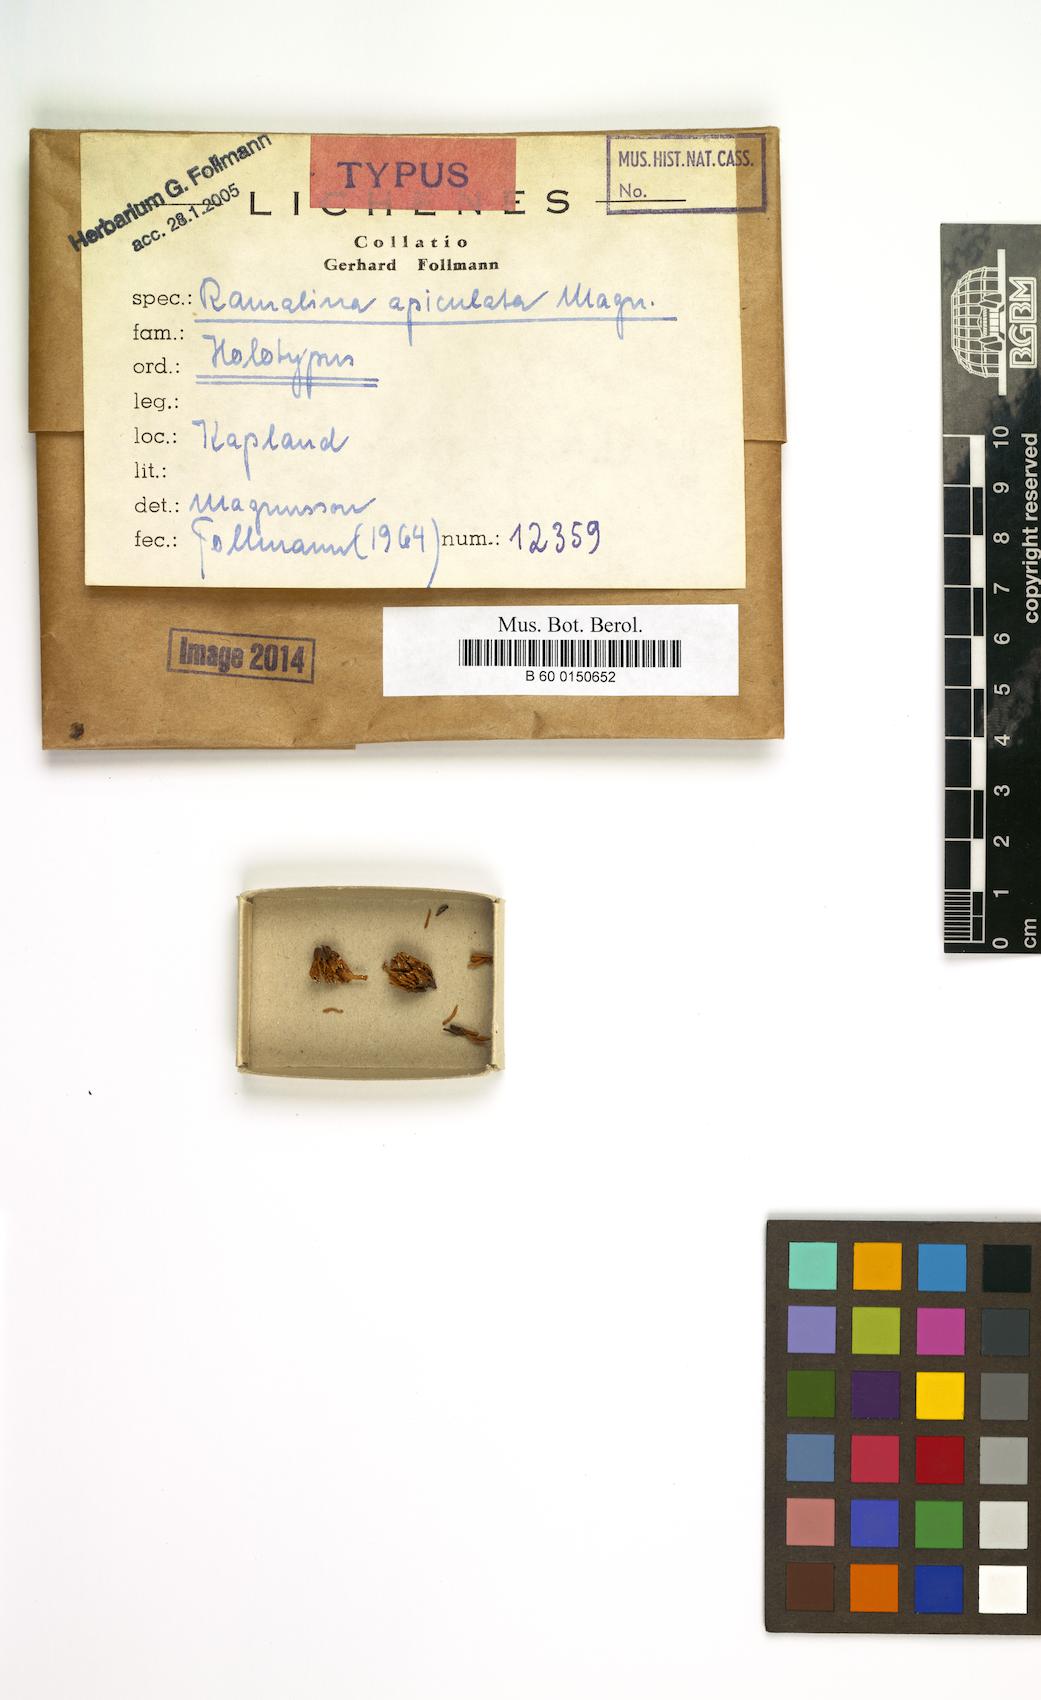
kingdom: Fungi
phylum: Ascomycota
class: Lecanoromycetes
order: Lecanorales
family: Ramalinaceae
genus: Ramalina
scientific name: Ramalina
